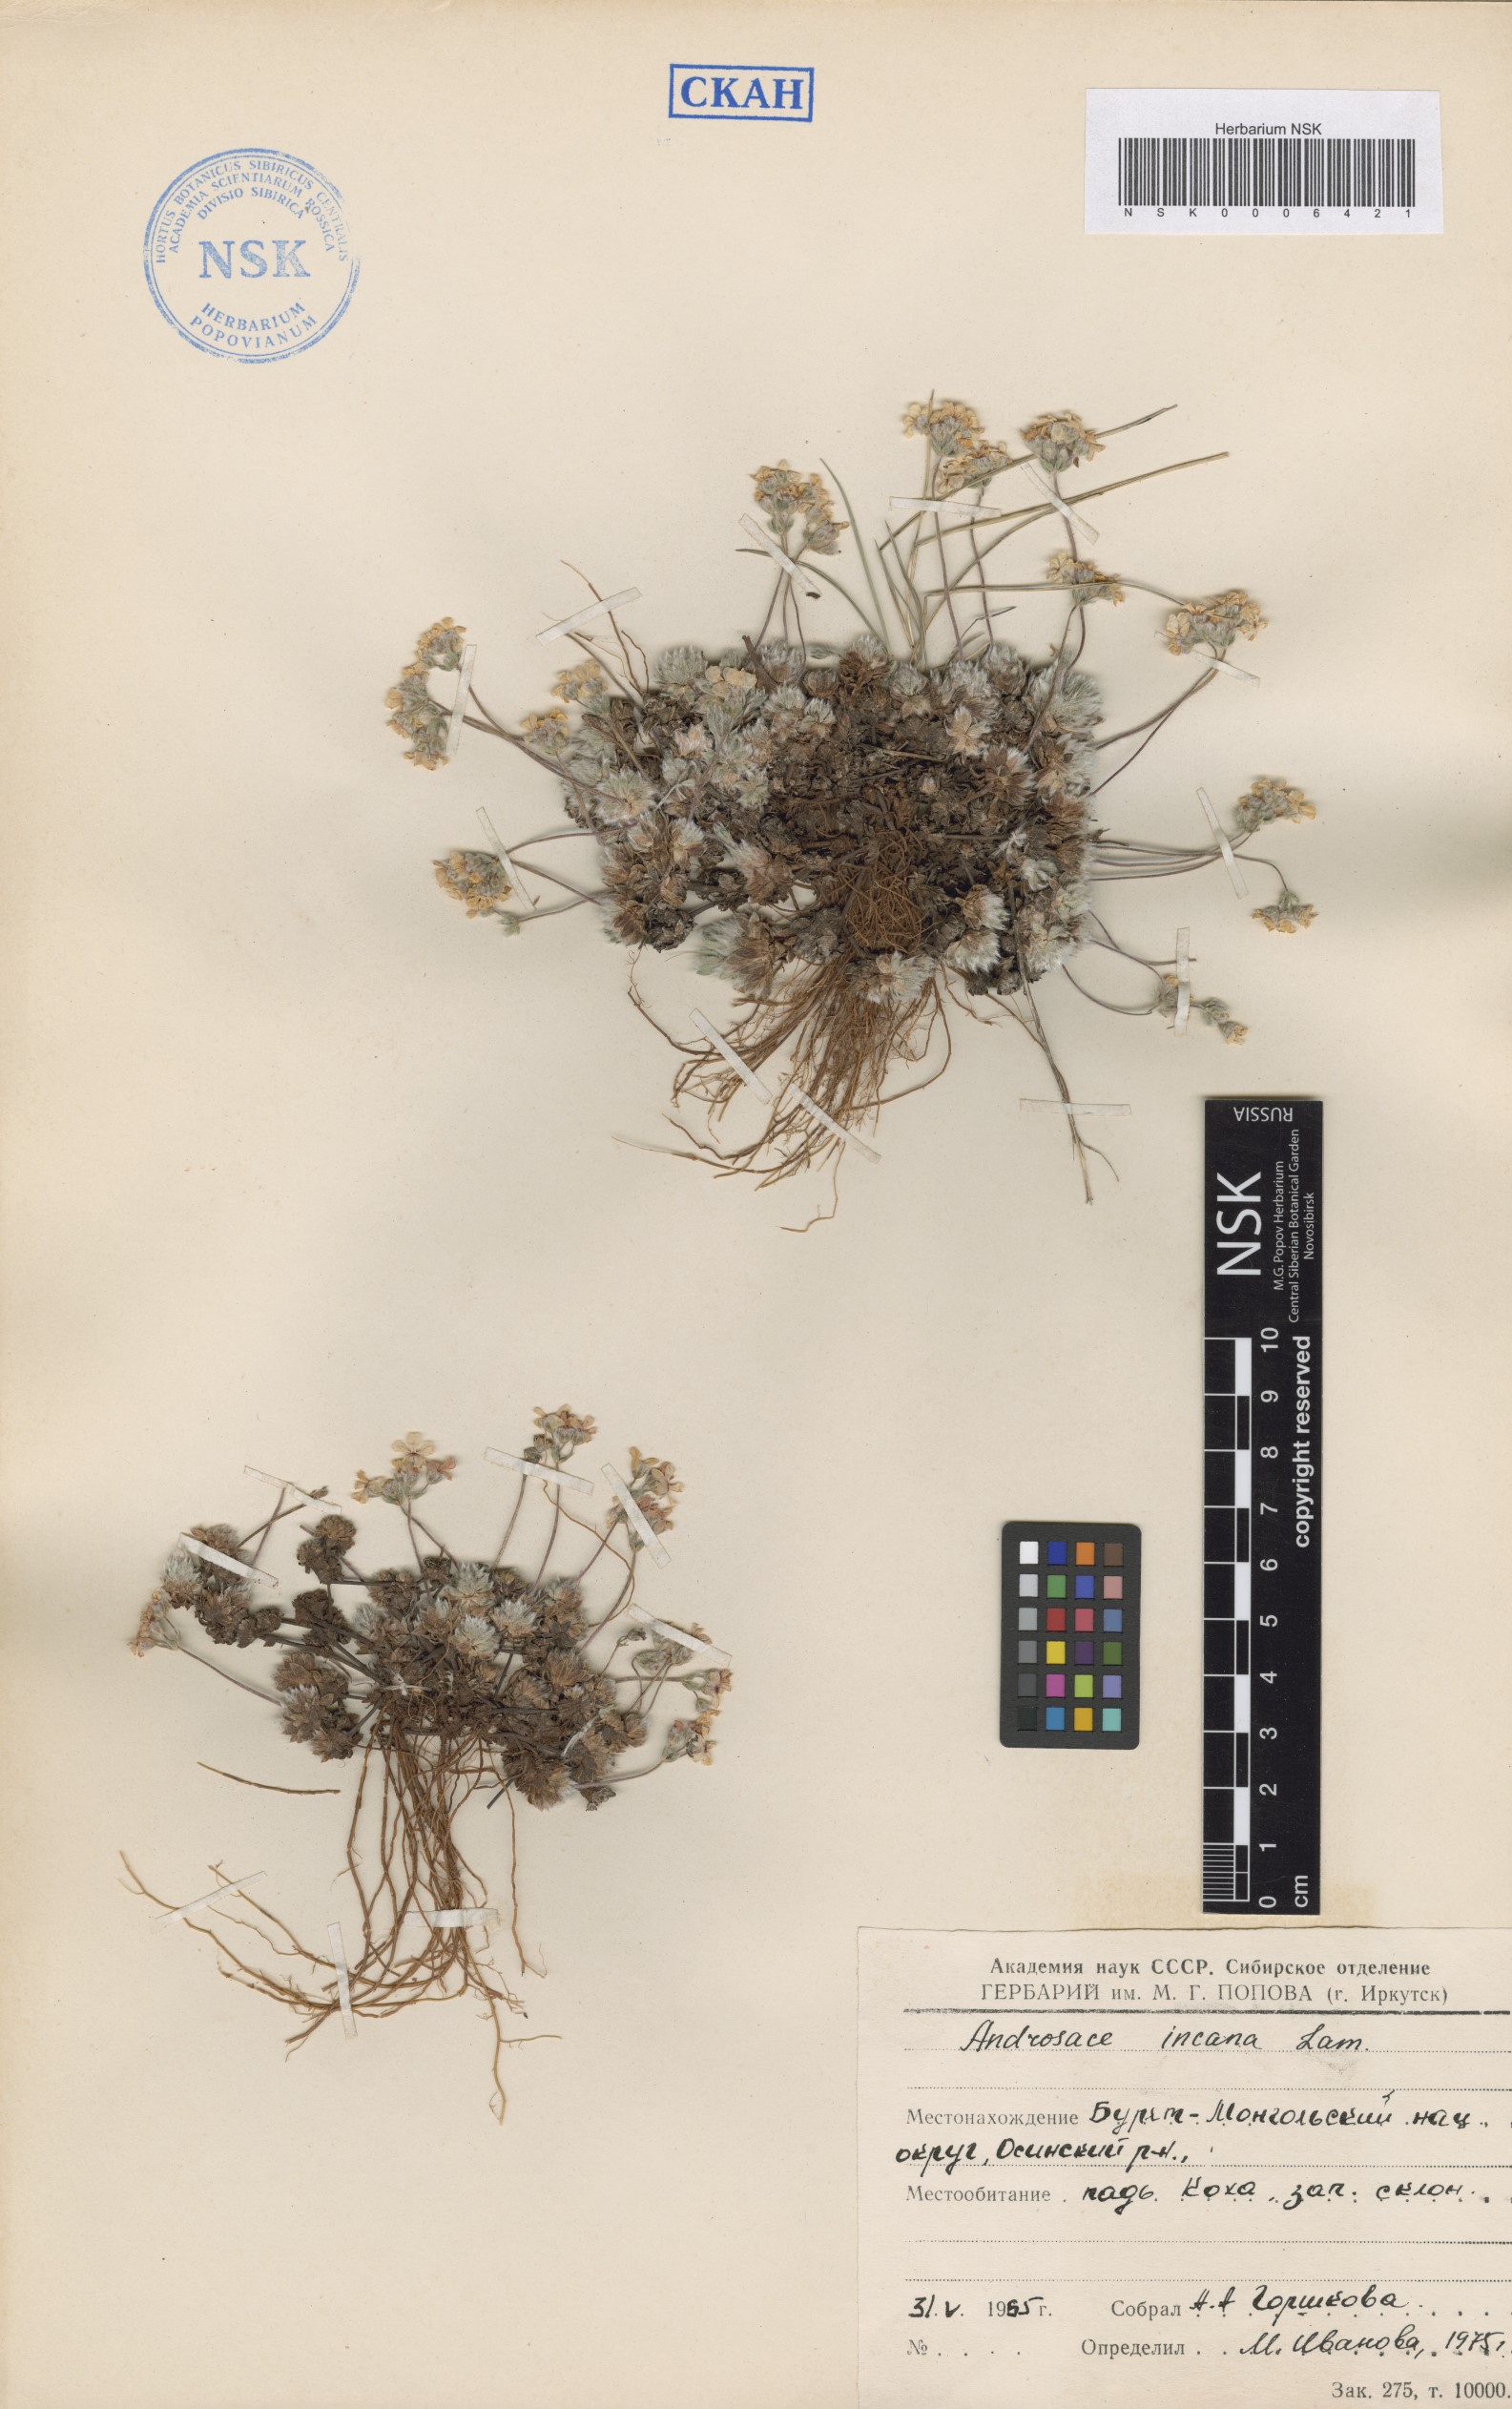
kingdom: Plantae
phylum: Tracheophyta
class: Magnoliopsida
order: Ericales
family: Primulaceae
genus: Androsace
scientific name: Androsace incana
